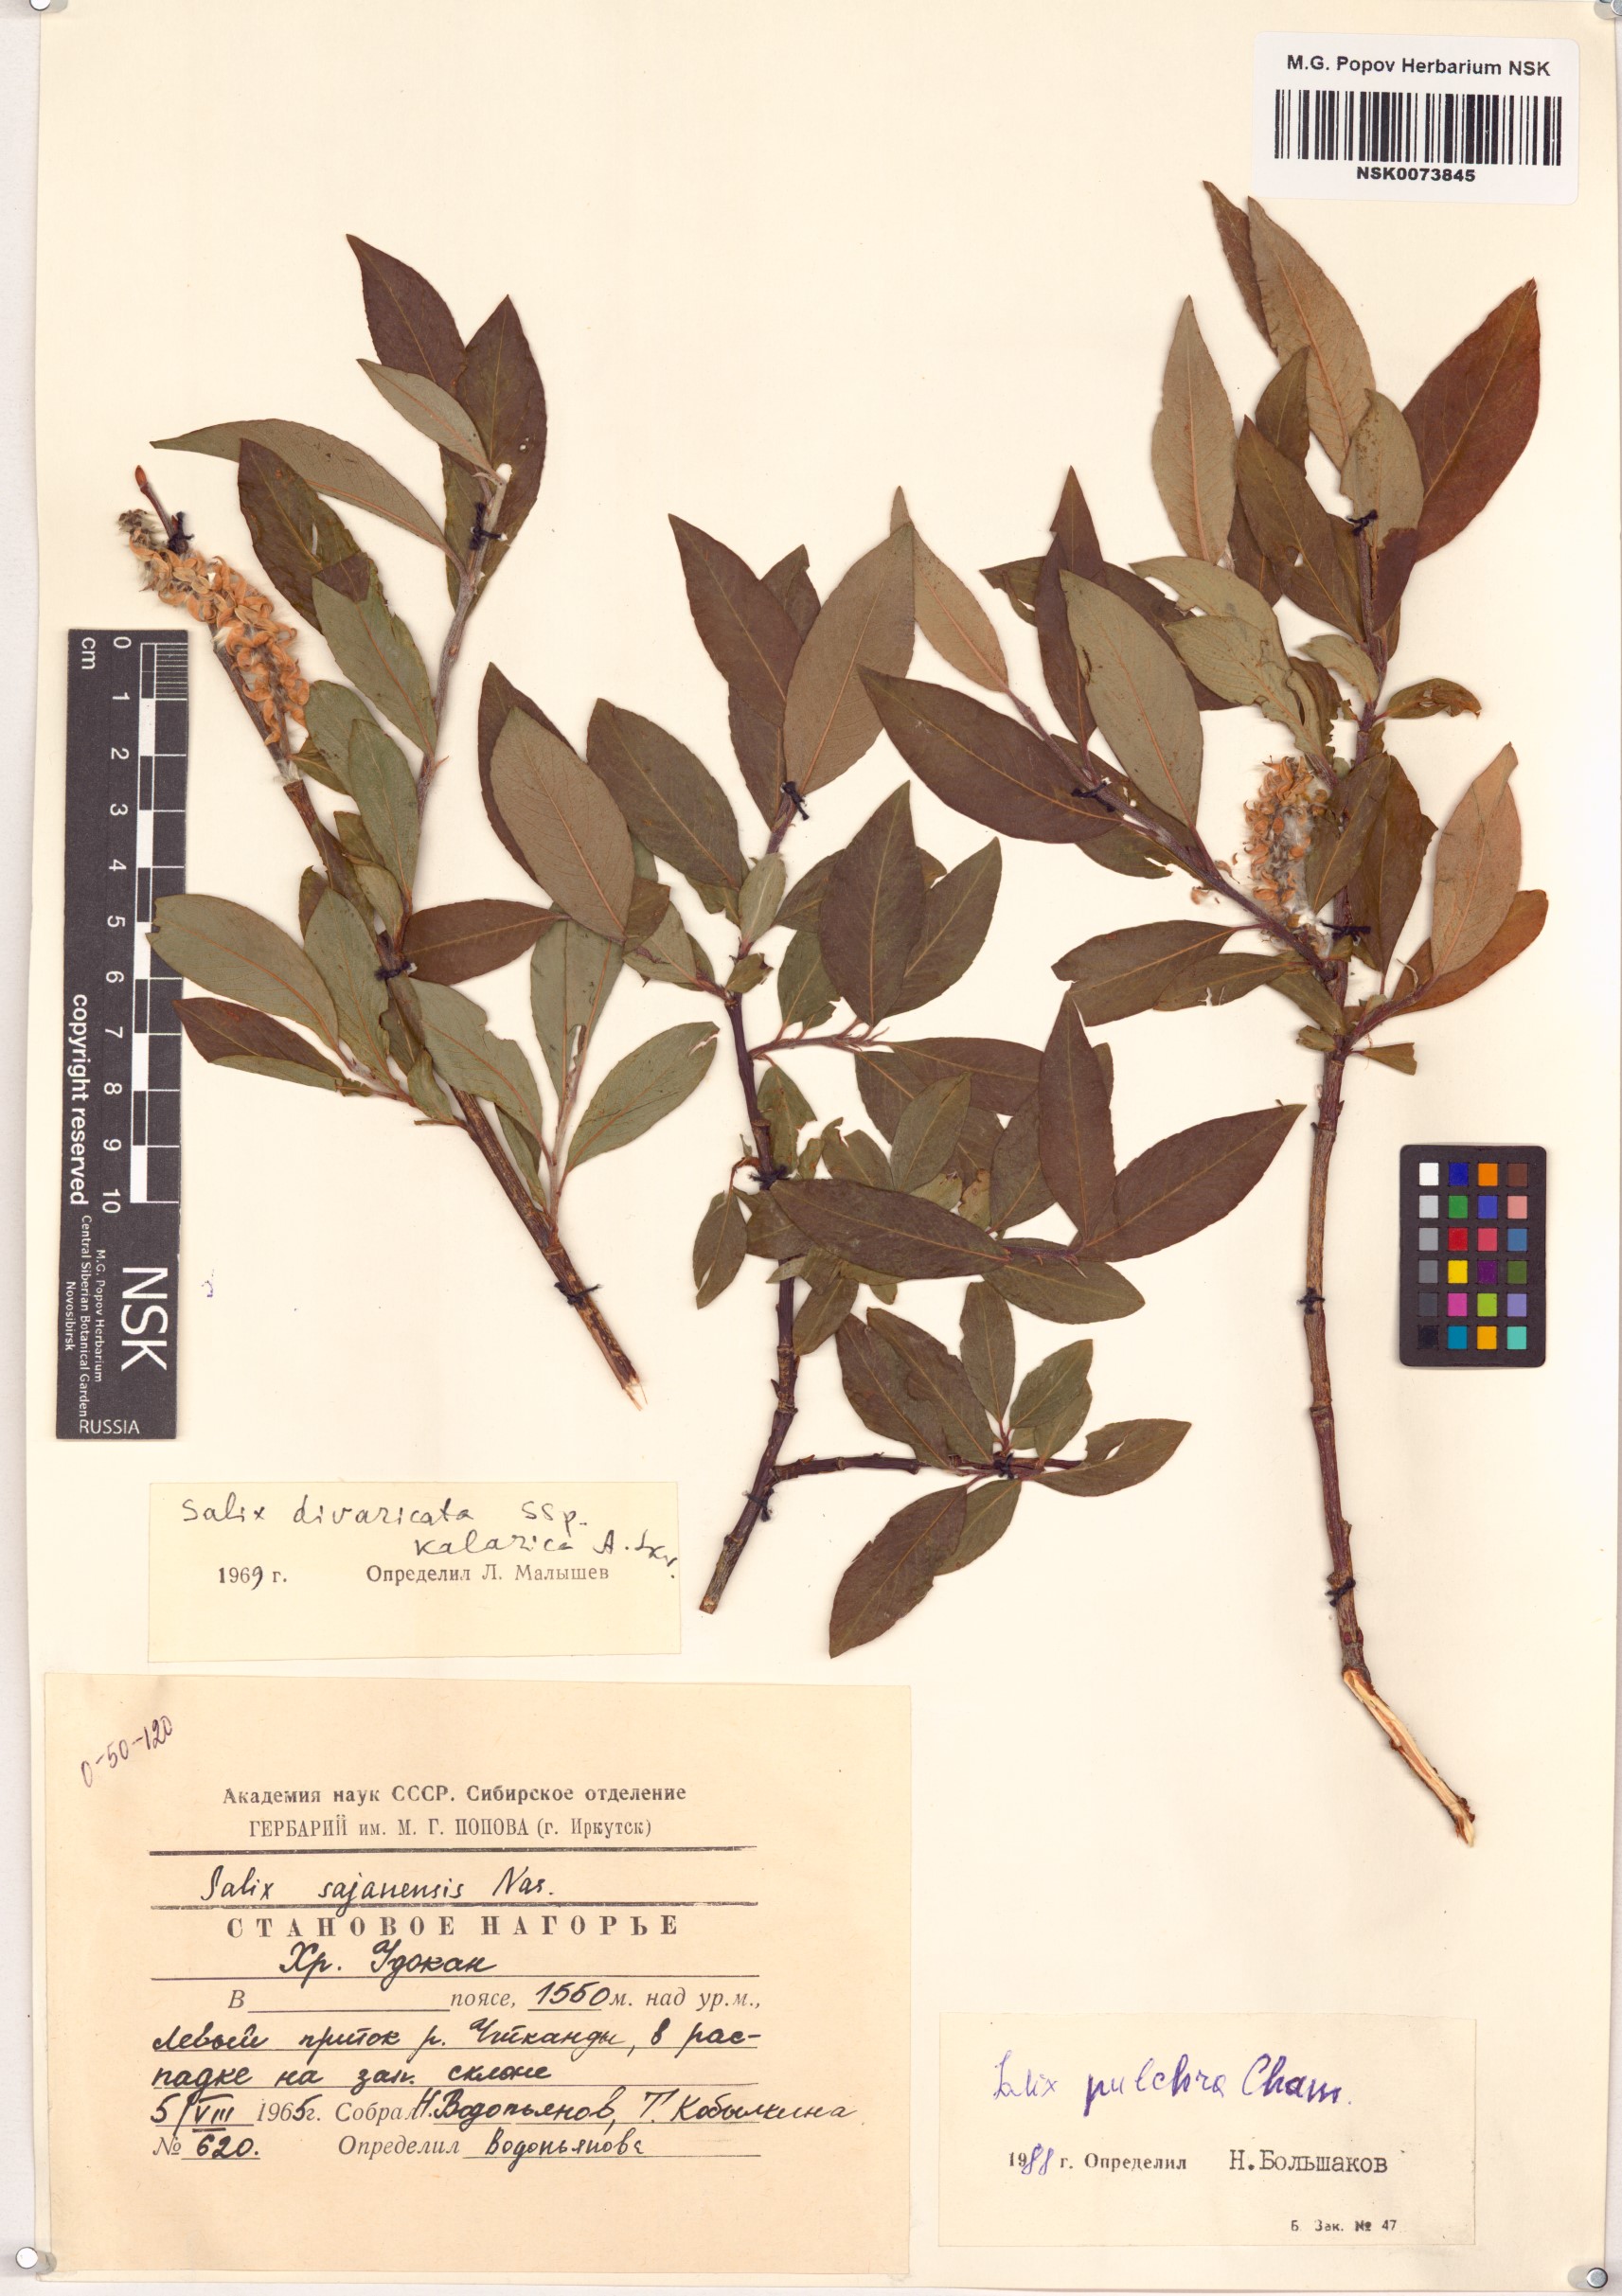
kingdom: Plantae
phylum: Tracheophyta
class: Magnoliopsida
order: Malpighiales
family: Salicaceae
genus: Salix
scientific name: Salix pulchra
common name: Diamond-leaved willow
